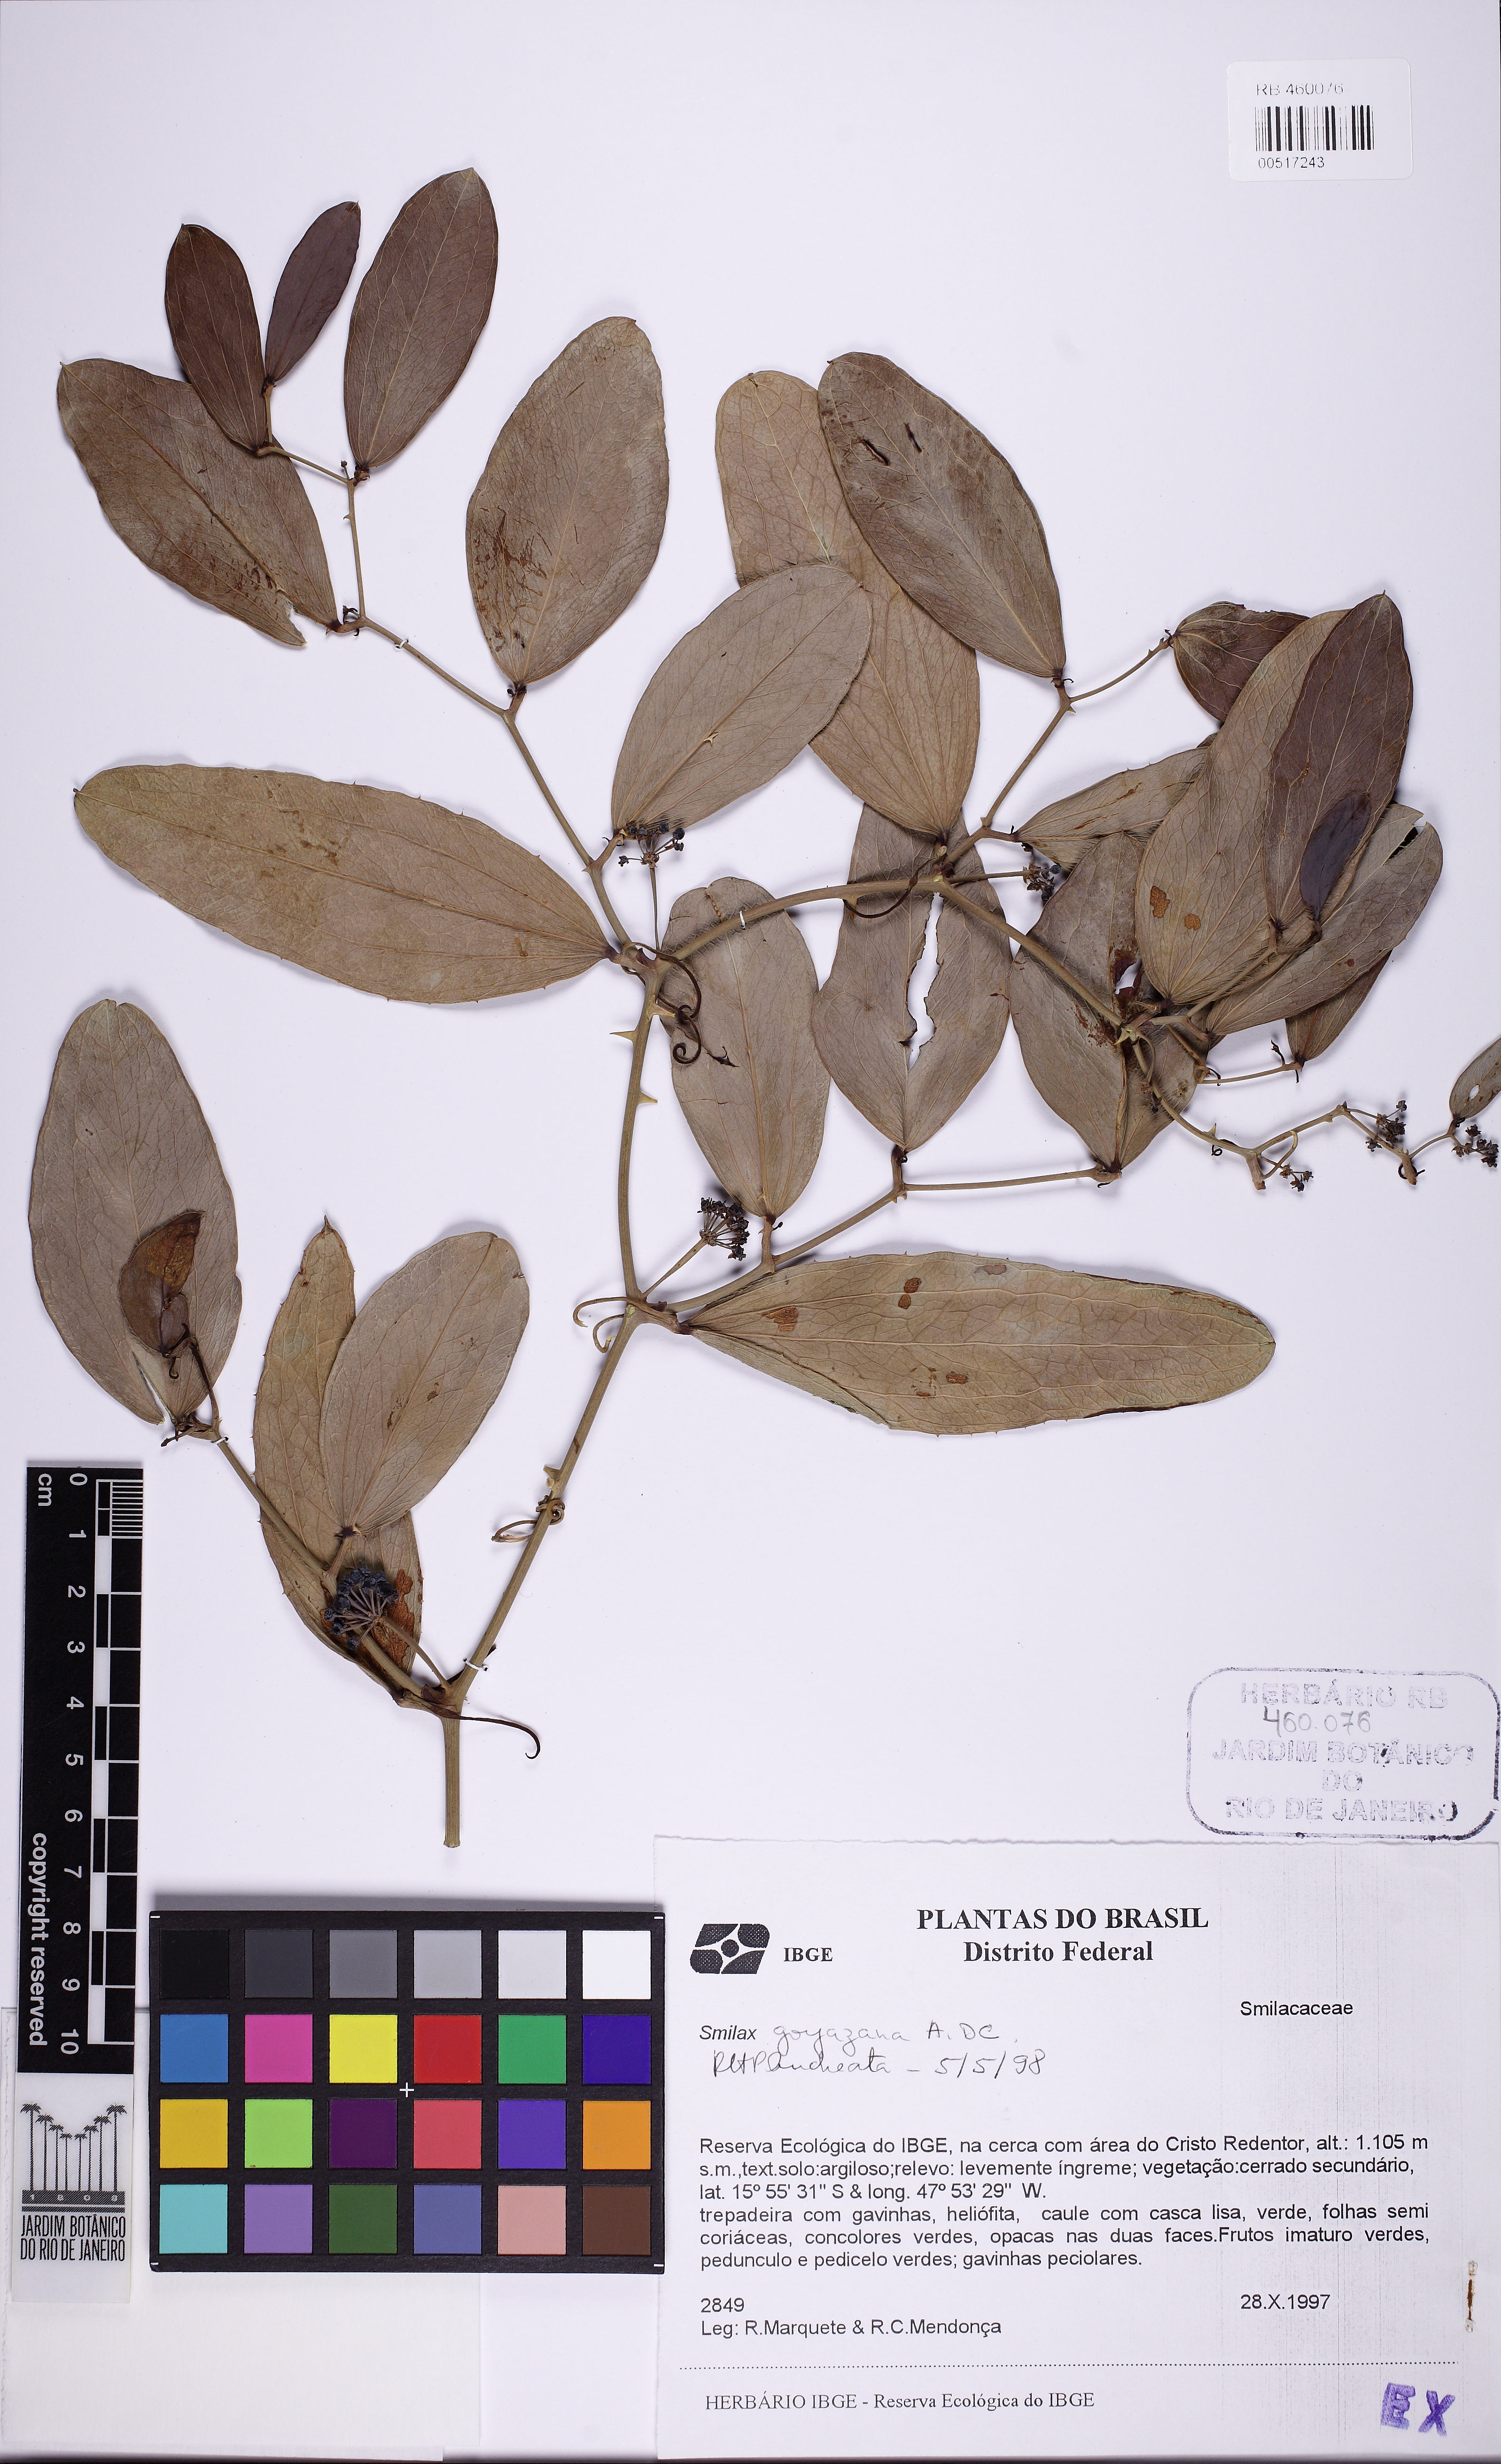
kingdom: Plantae
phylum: Tracheophyta
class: Liliopsida
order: Liliales
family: Smilacaceae
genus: Smilax
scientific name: Smilax goyazana
